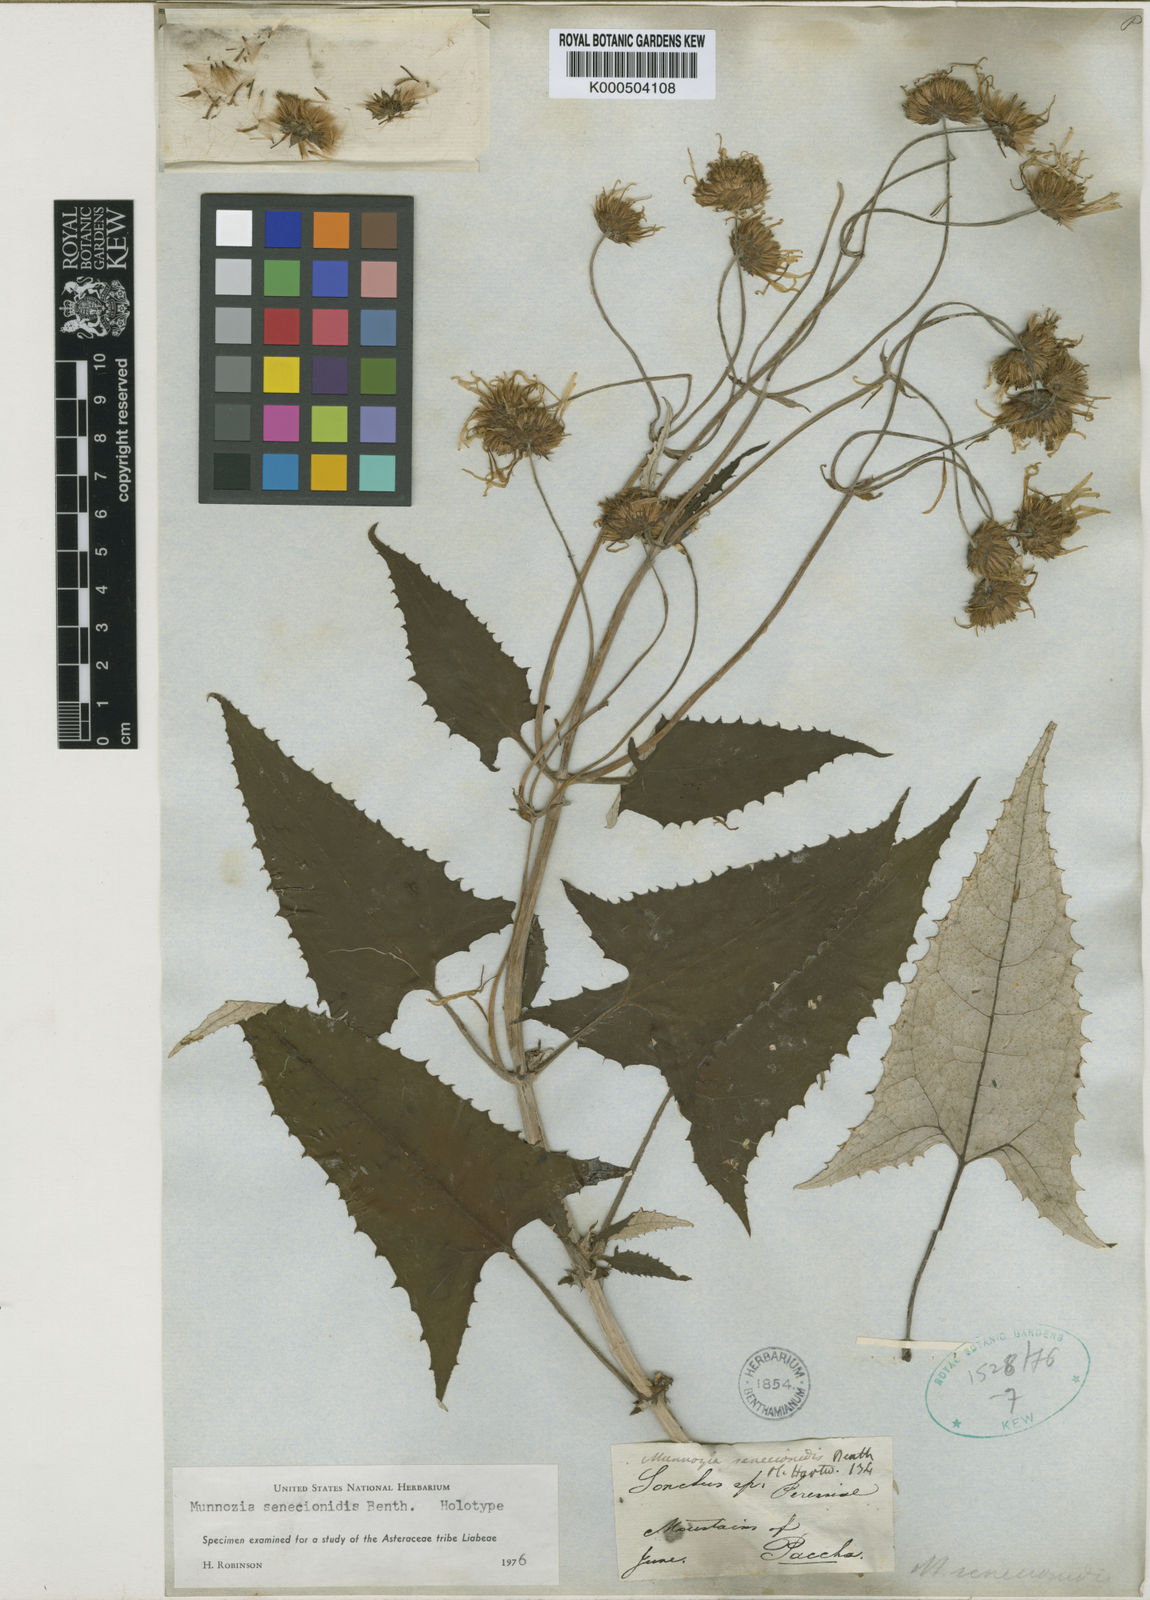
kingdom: Plantae
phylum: Tracheophyta
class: Magnoliopsida
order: Asterales
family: Asteraceae
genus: Munnozia
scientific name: Munnozia senecionidis
